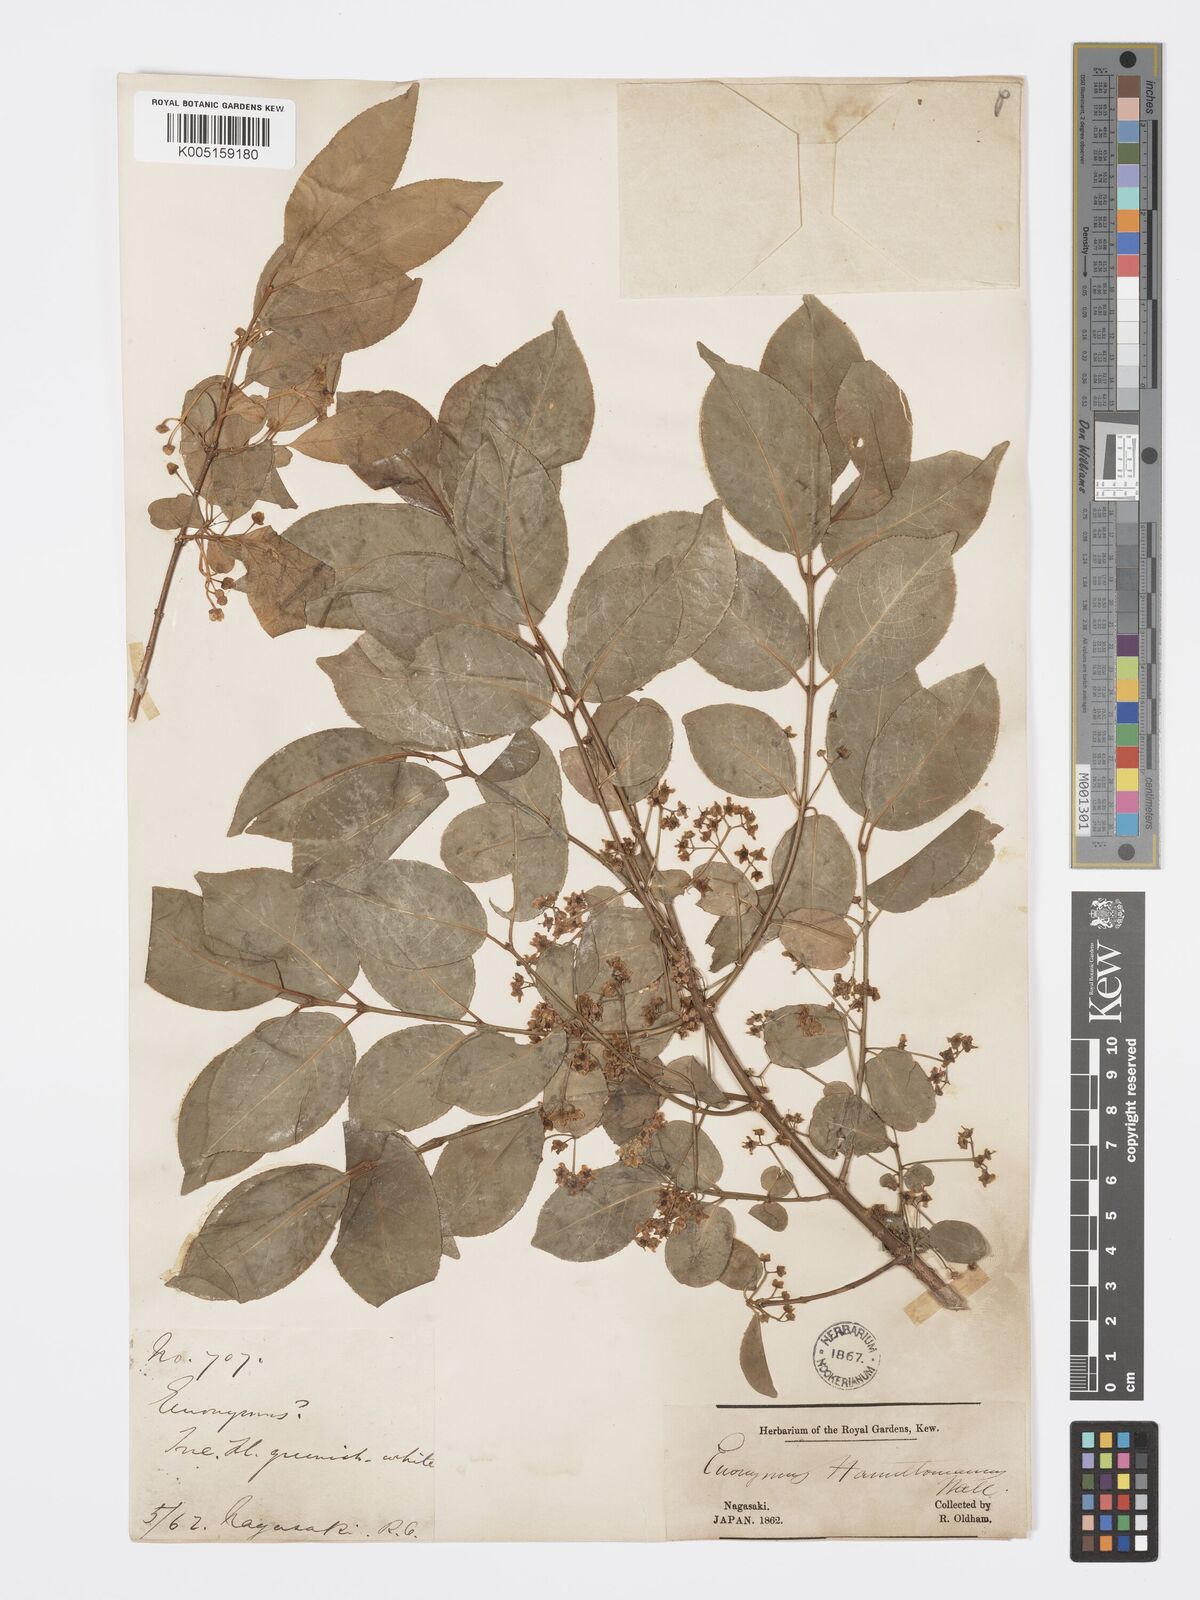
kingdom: Plantae
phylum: Tracheophyta
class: Magnoliopsida
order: Celastrales
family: Celastraceae
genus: Euonymus
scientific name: Euonymus hamiltonianus
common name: Hamilton's spindletree
